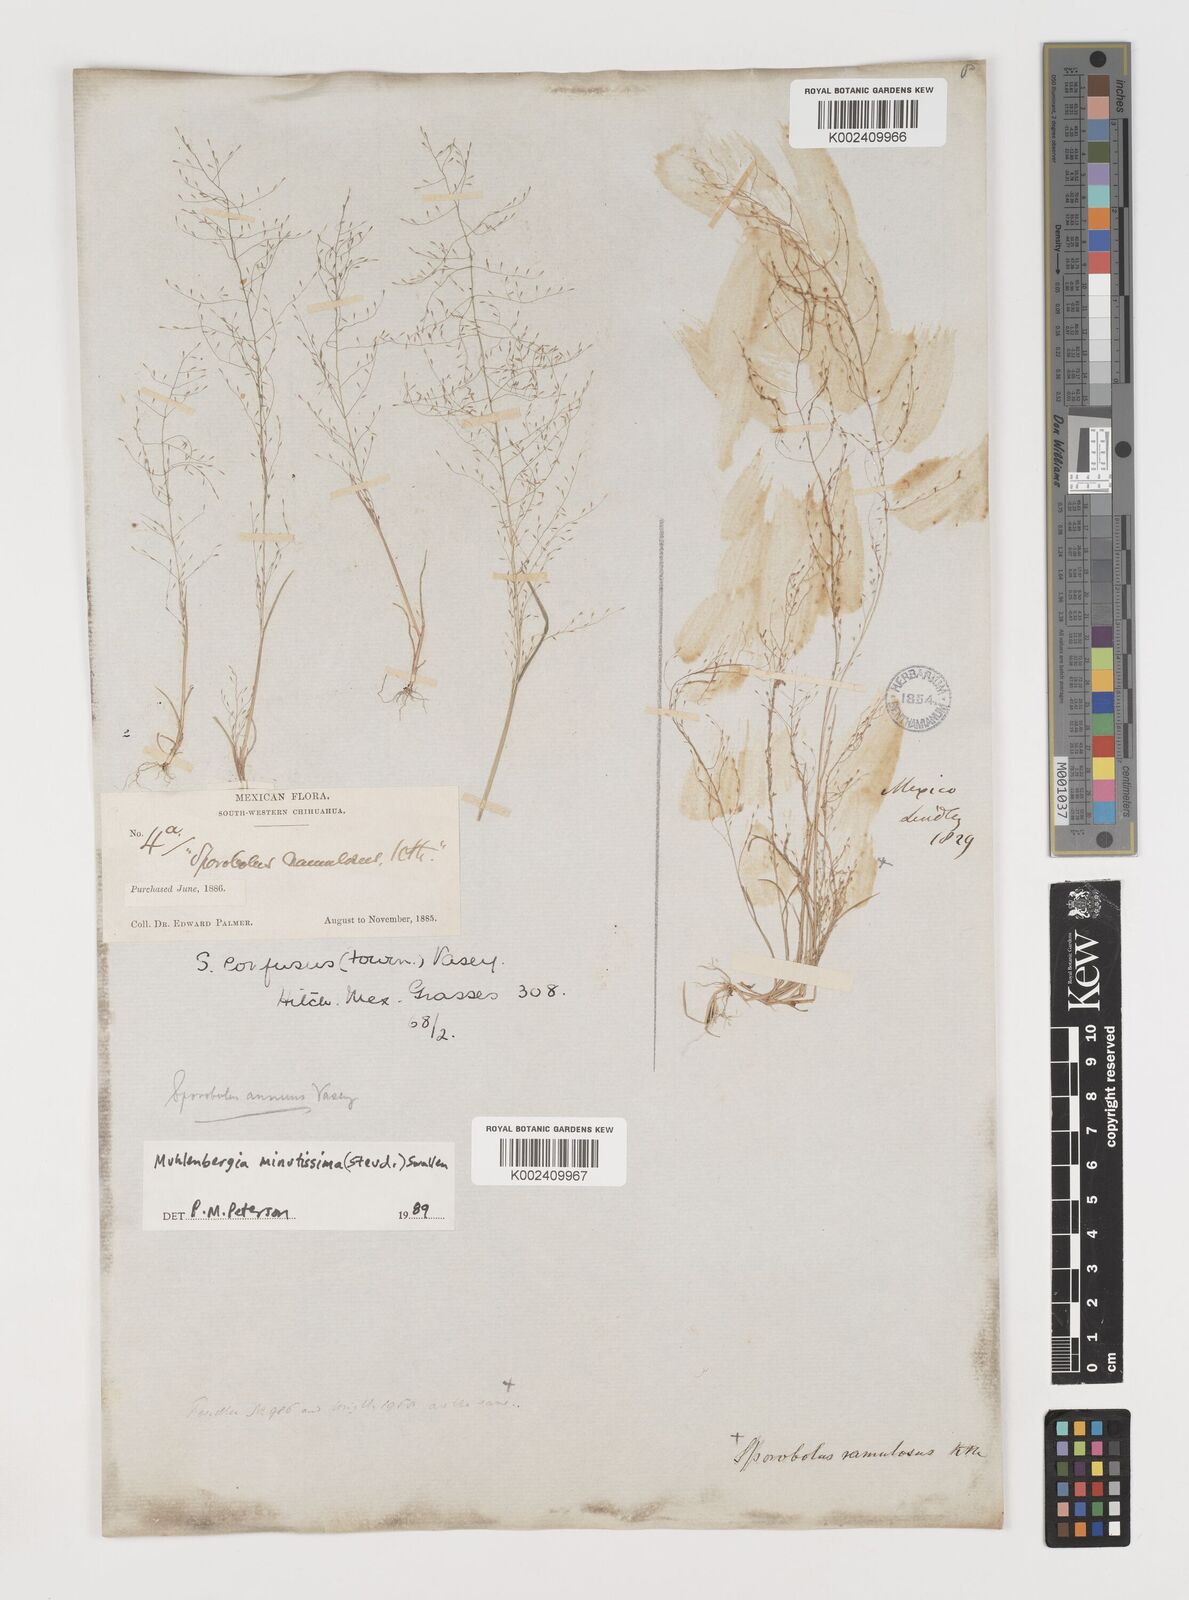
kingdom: Plantae
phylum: Tracheophyta
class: Liliopsida
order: Poales
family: Poaceae
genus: Muhlenbergia
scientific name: Muhlenbergia minutissima
